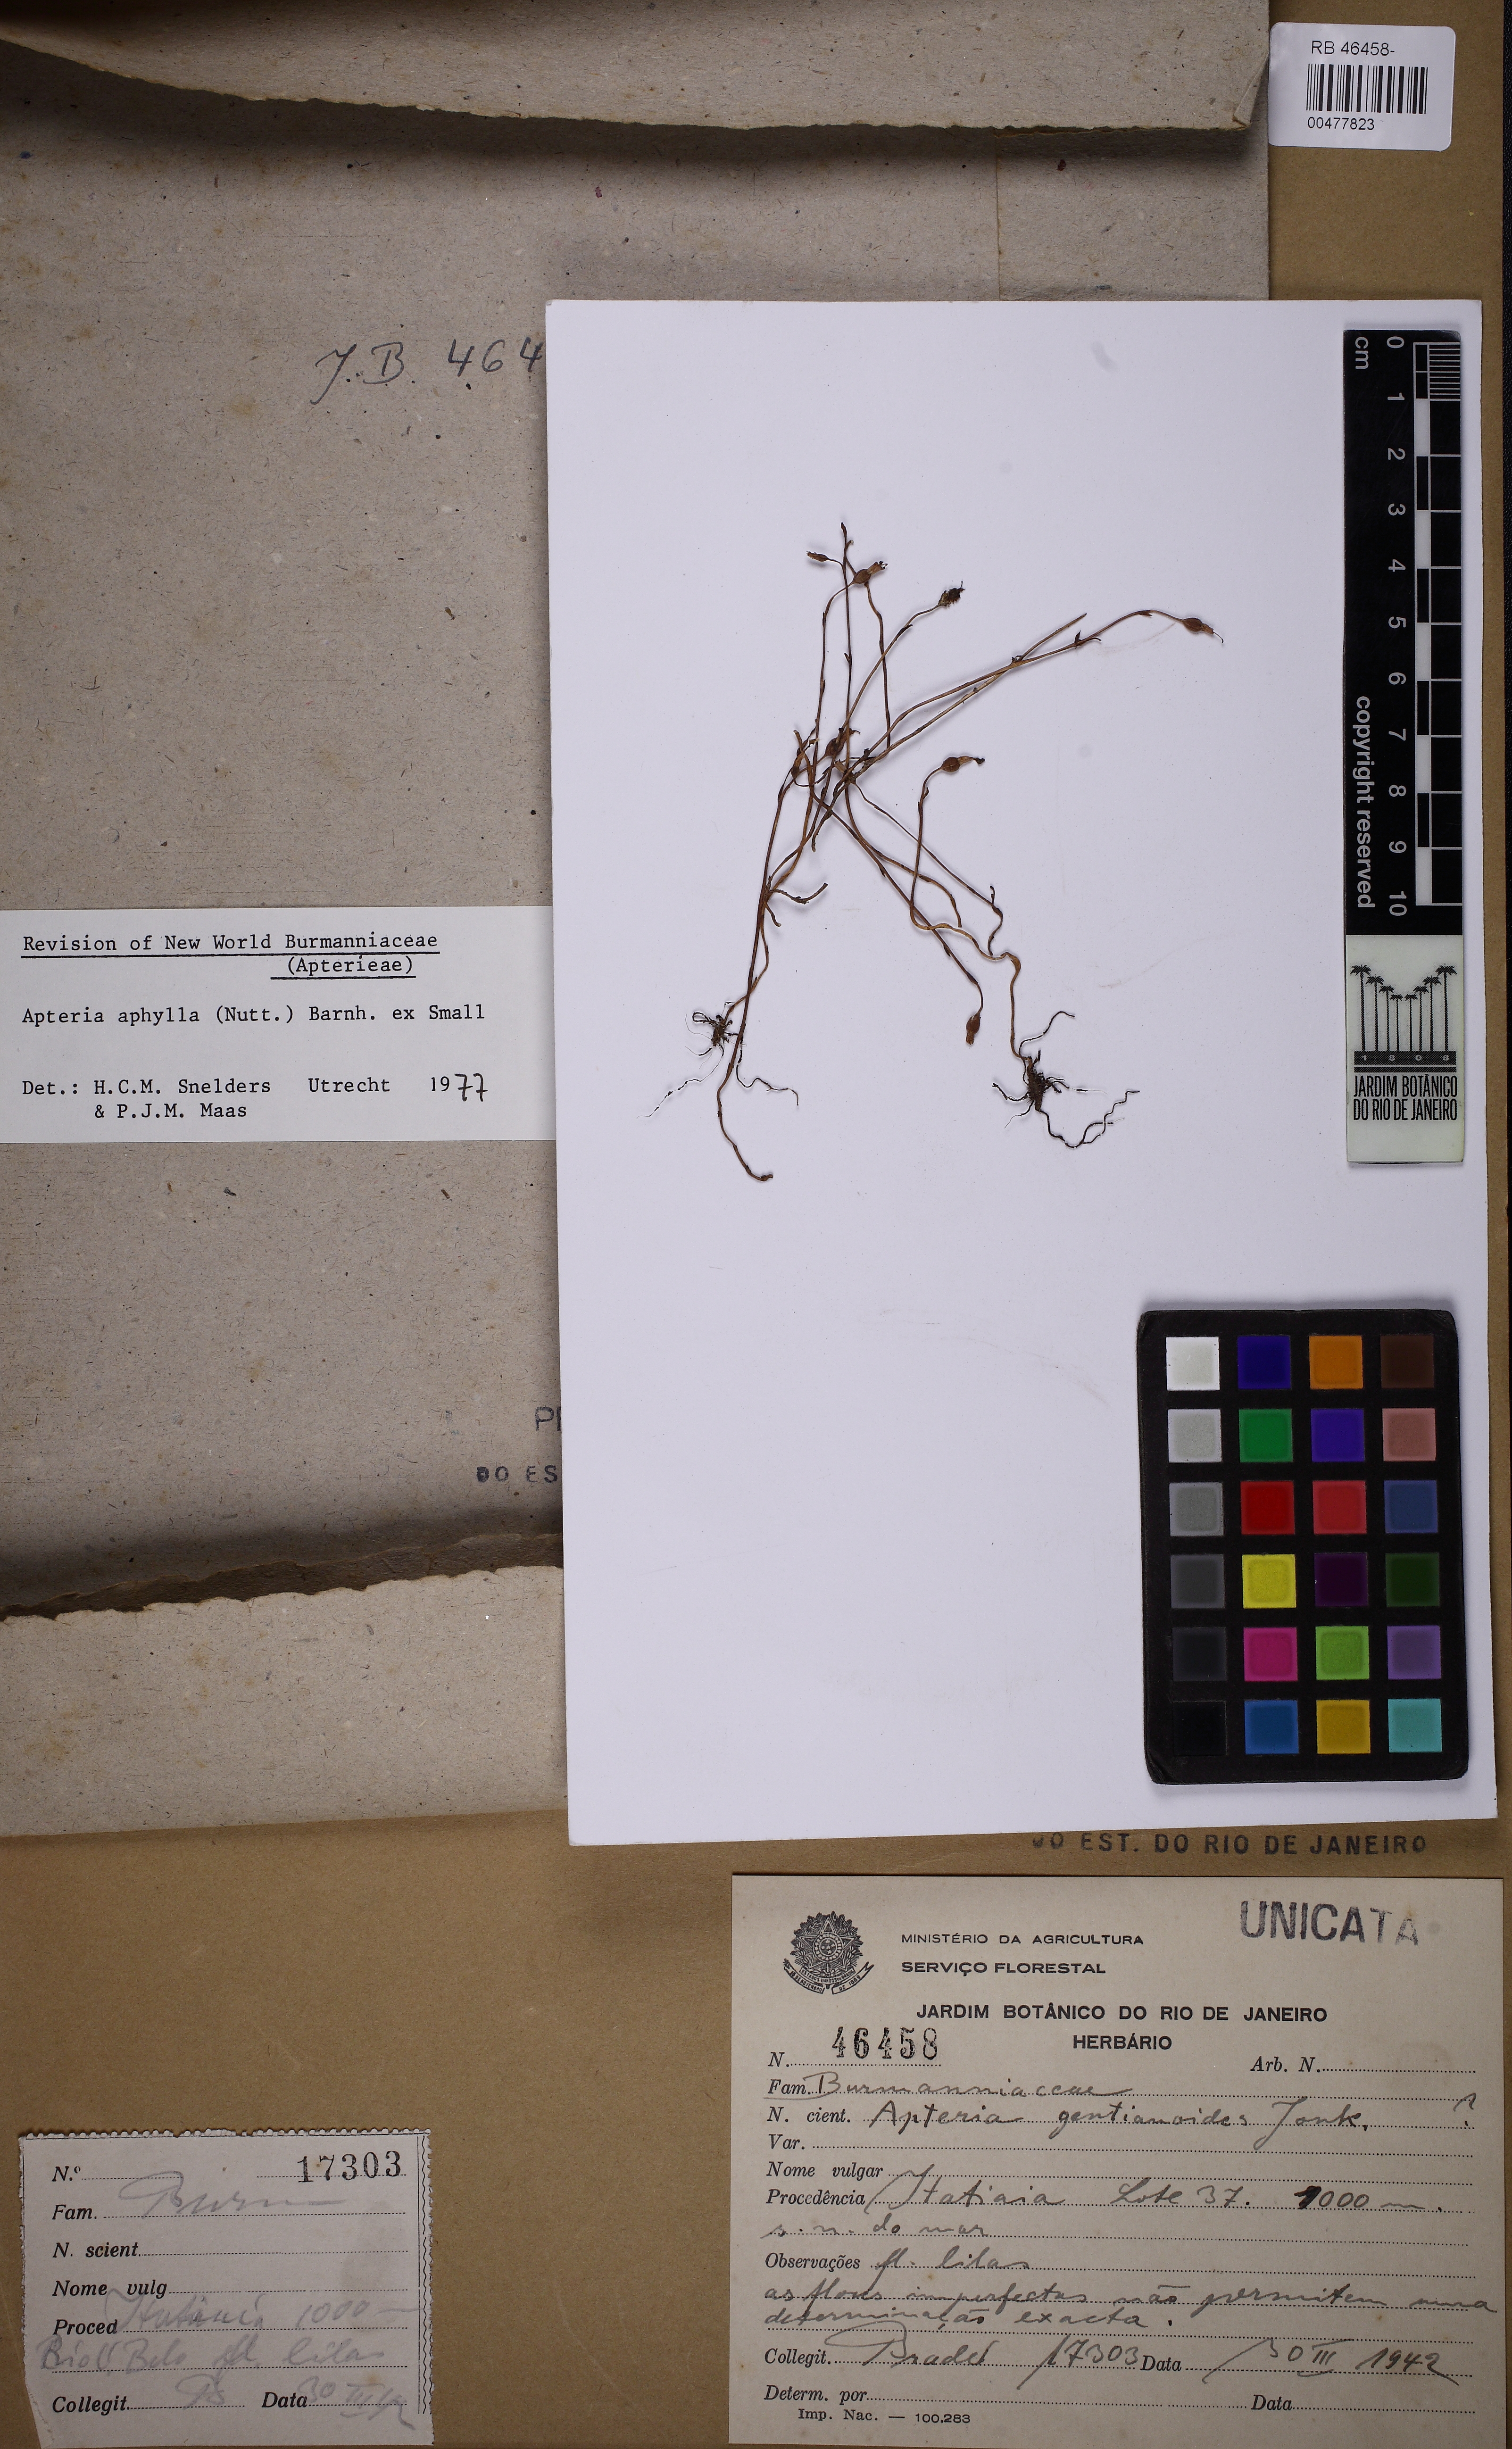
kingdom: Plantae
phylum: Tracheophyta
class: Liliopsida
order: Dioscoreales
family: Burmanniaceae
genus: Apteria
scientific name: Apteria aphylla
